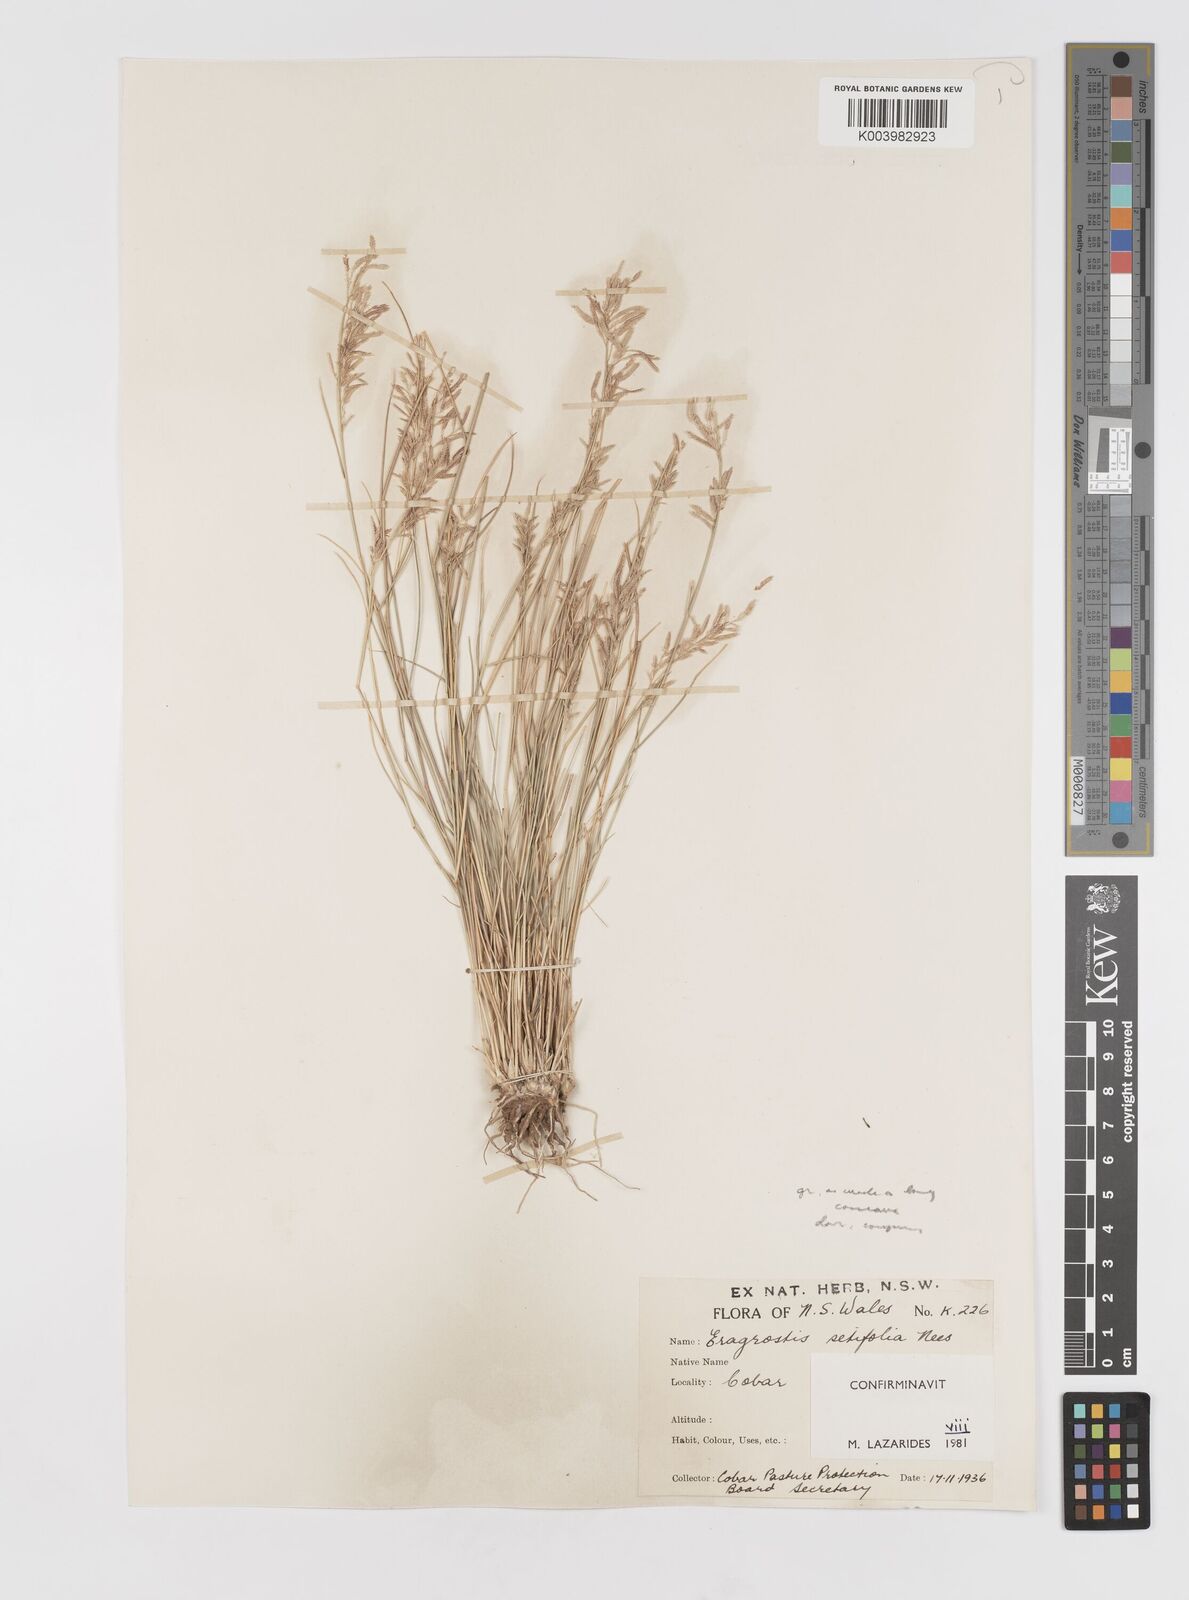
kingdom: Plantae
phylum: Tracheophyta
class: Liliopsida
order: Poales
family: Poaceae
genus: Eragrostis
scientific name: Eragrostis setifolia
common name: Bristleleaf lovegrass
